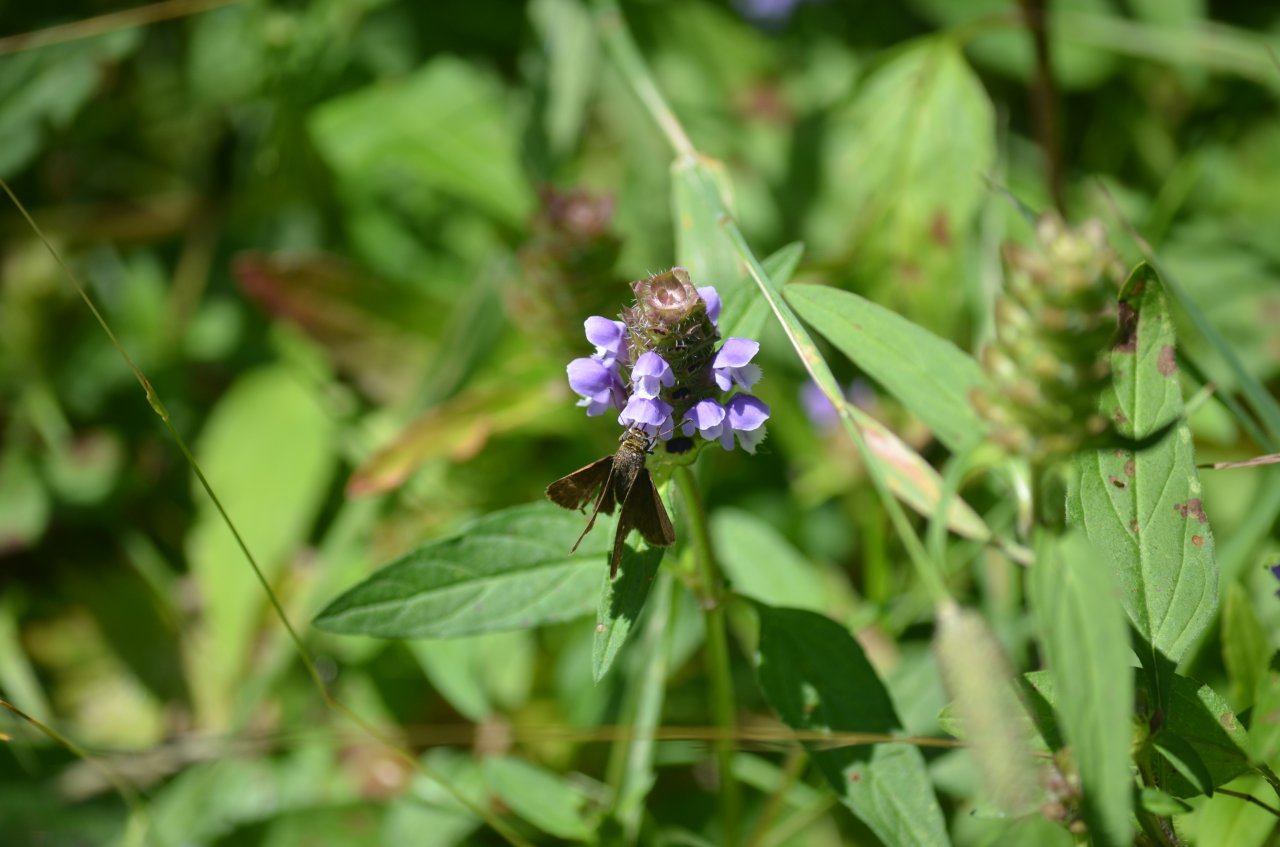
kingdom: Animalia
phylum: Arthropoda
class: Insecta
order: Lepidoptera
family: Hesperiidae
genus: Euphyes
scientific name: Euphyes vestris
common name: Dun Skipper
